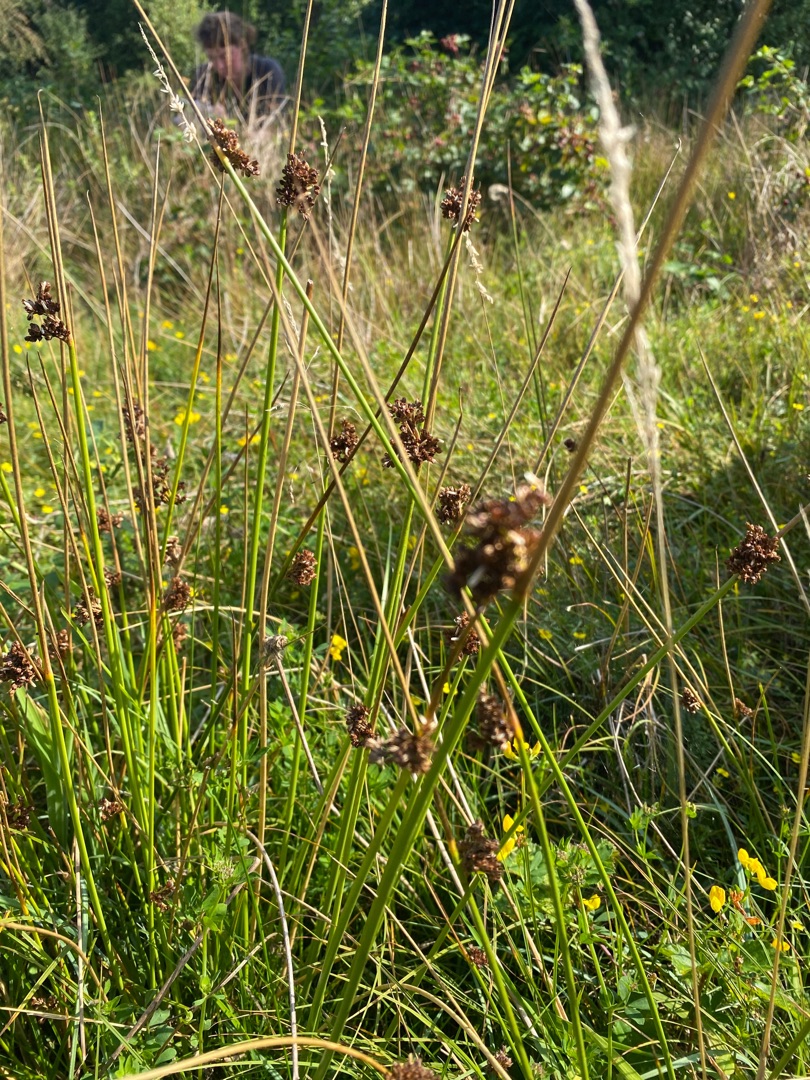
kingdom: Plantae
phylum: Tracheophyta
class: Liliopsida
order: Poales
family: Juncaceae
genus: Juncus
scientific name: Juncus effusus
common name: Lyse-siv
